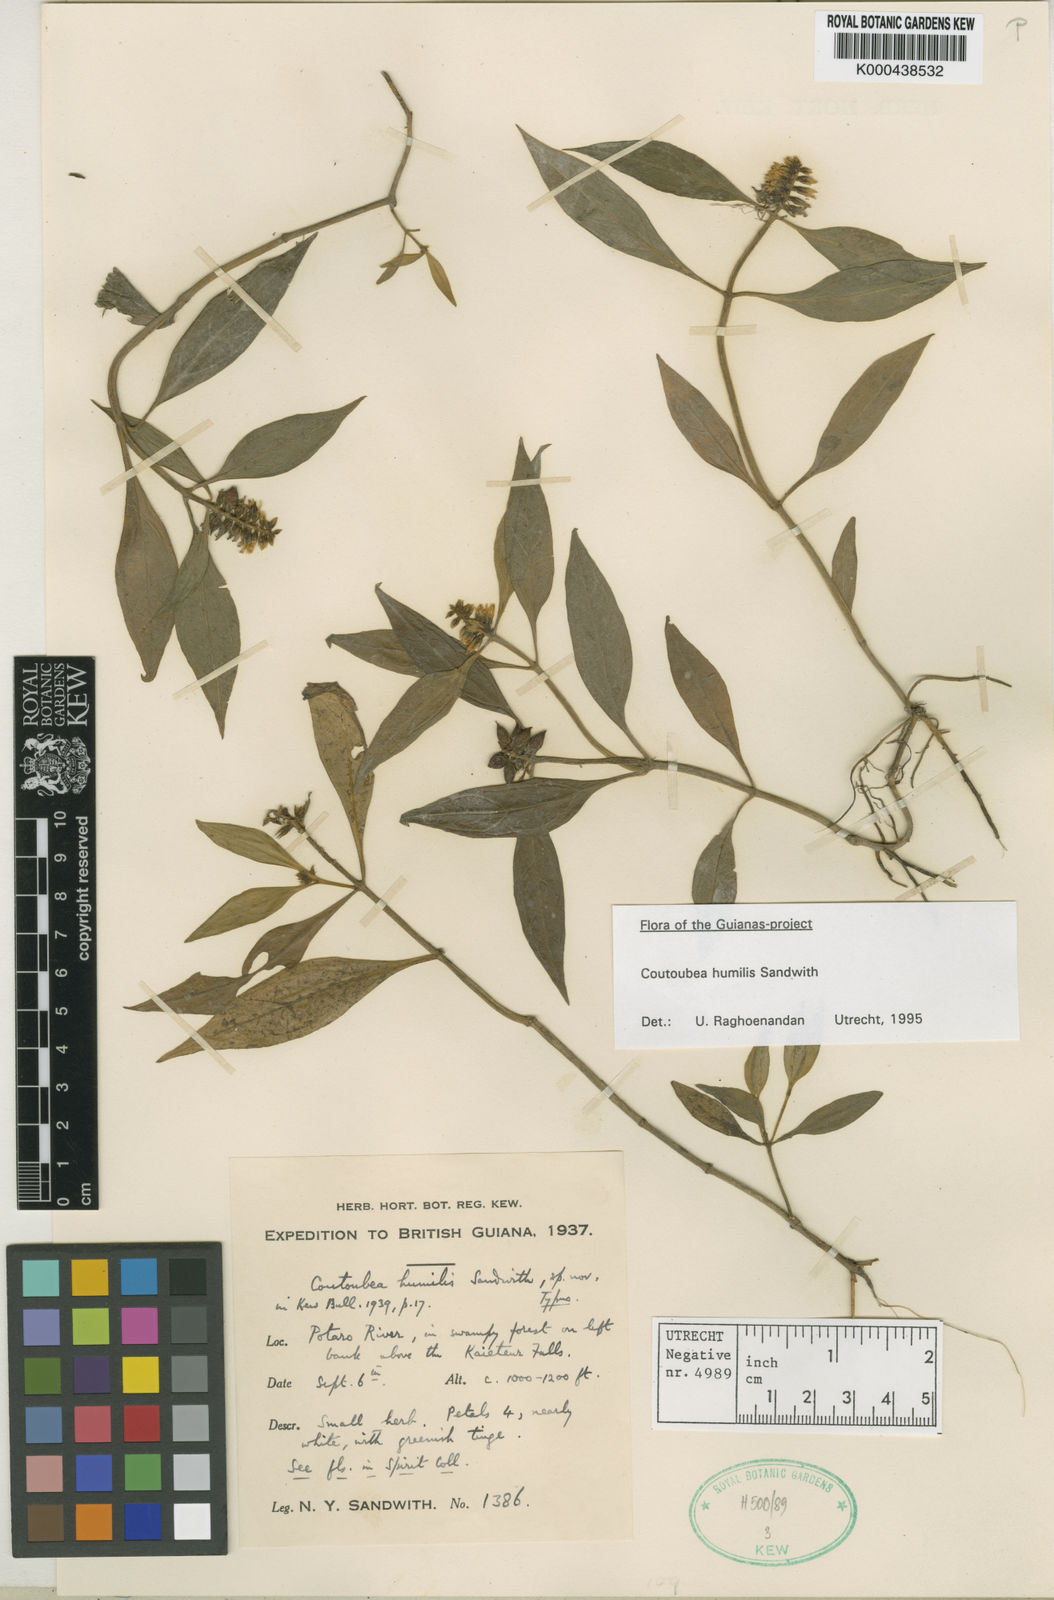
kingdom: Plantae
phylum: Tracheophyta
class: Magnoliopsida
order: Gentianales
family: Gentianaceae
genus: Coutoubea
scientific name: Coutoubea humilis
